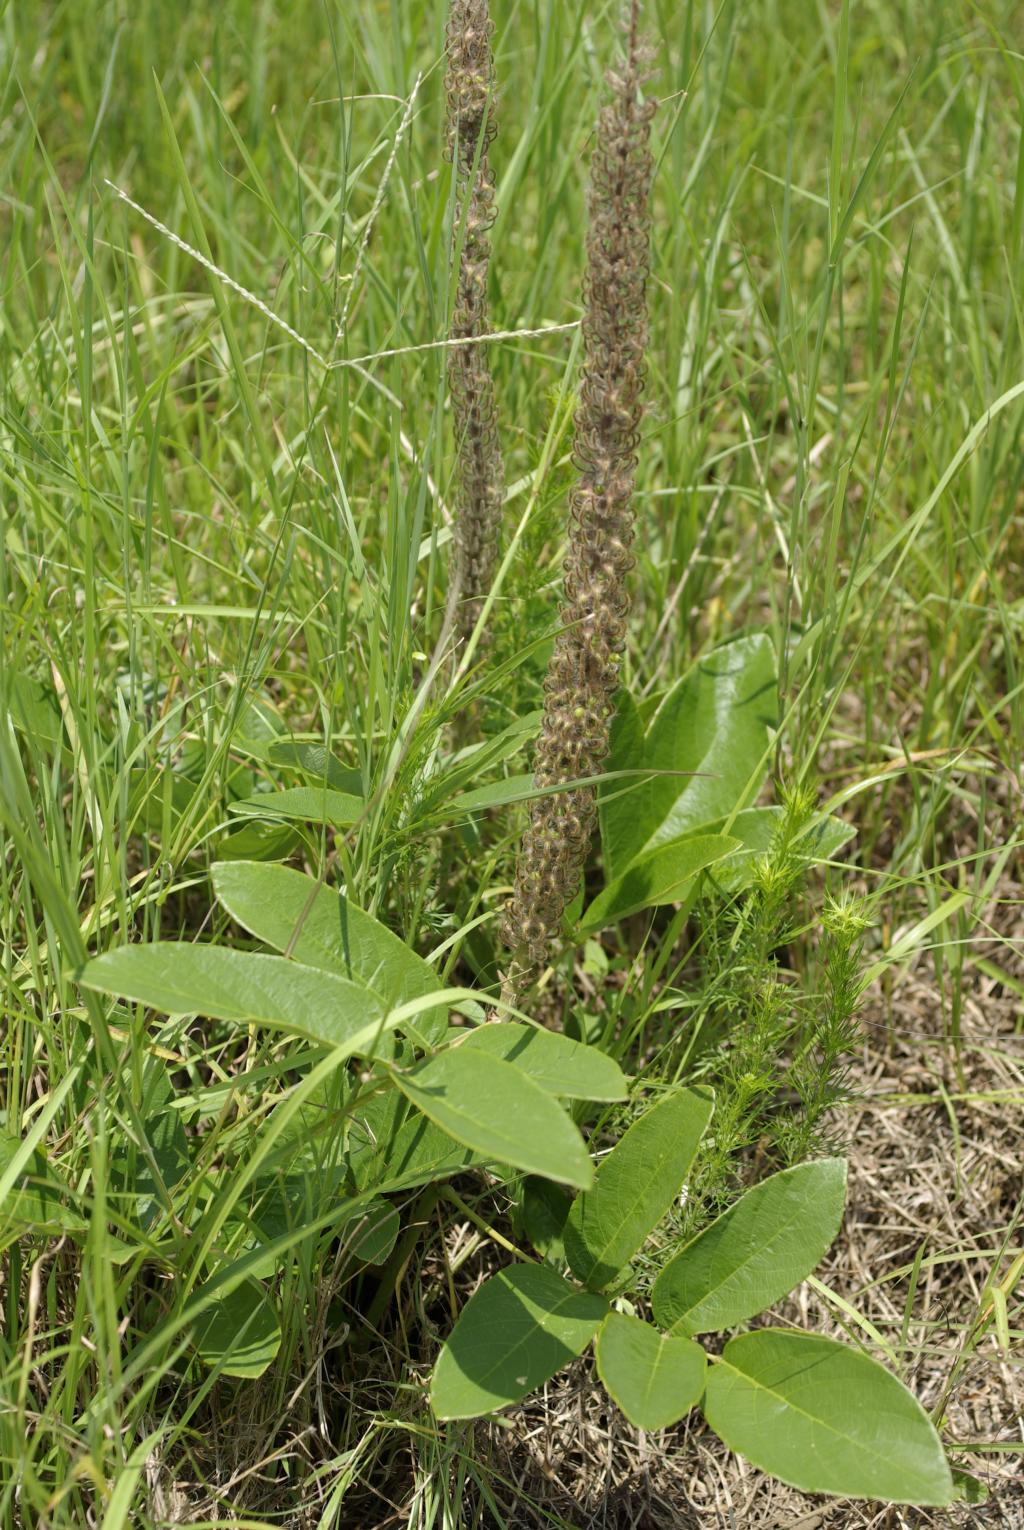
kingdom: Plantae
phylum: Tracheophyta
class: Magnoliopsida
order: Fabales
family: Fabaceae
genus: Uraria
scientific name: Uraria crinita
